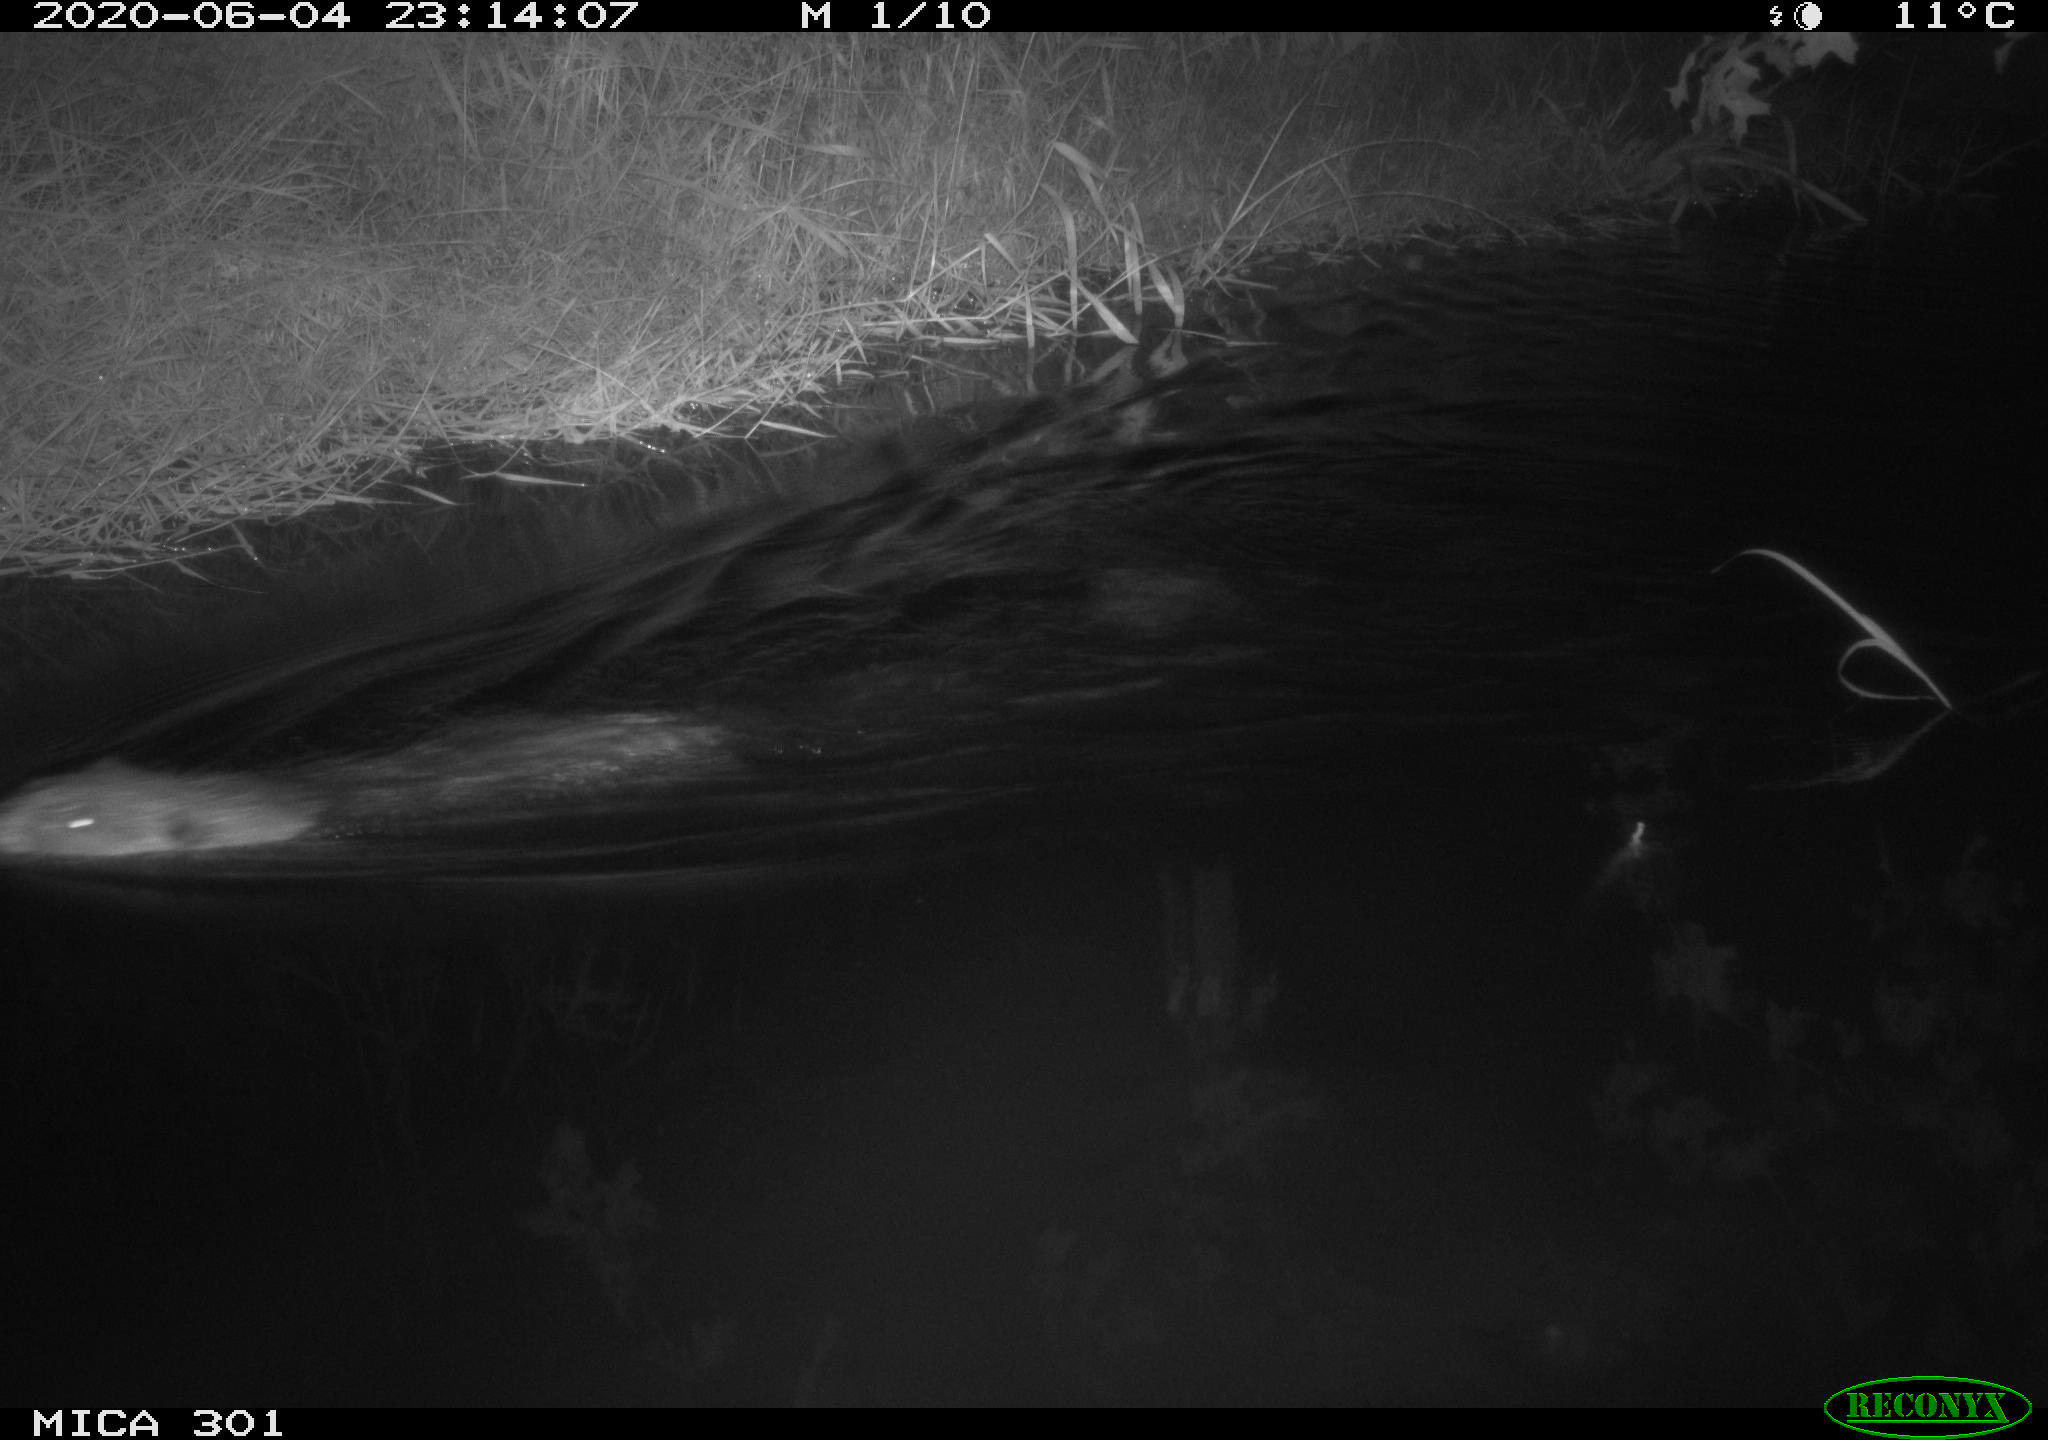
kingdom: Animalia
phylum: Chordata
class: Mammalia
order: Rodentia
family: Castoridae
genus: Castor
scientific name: Castor fiber
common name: Eurasian beaver
